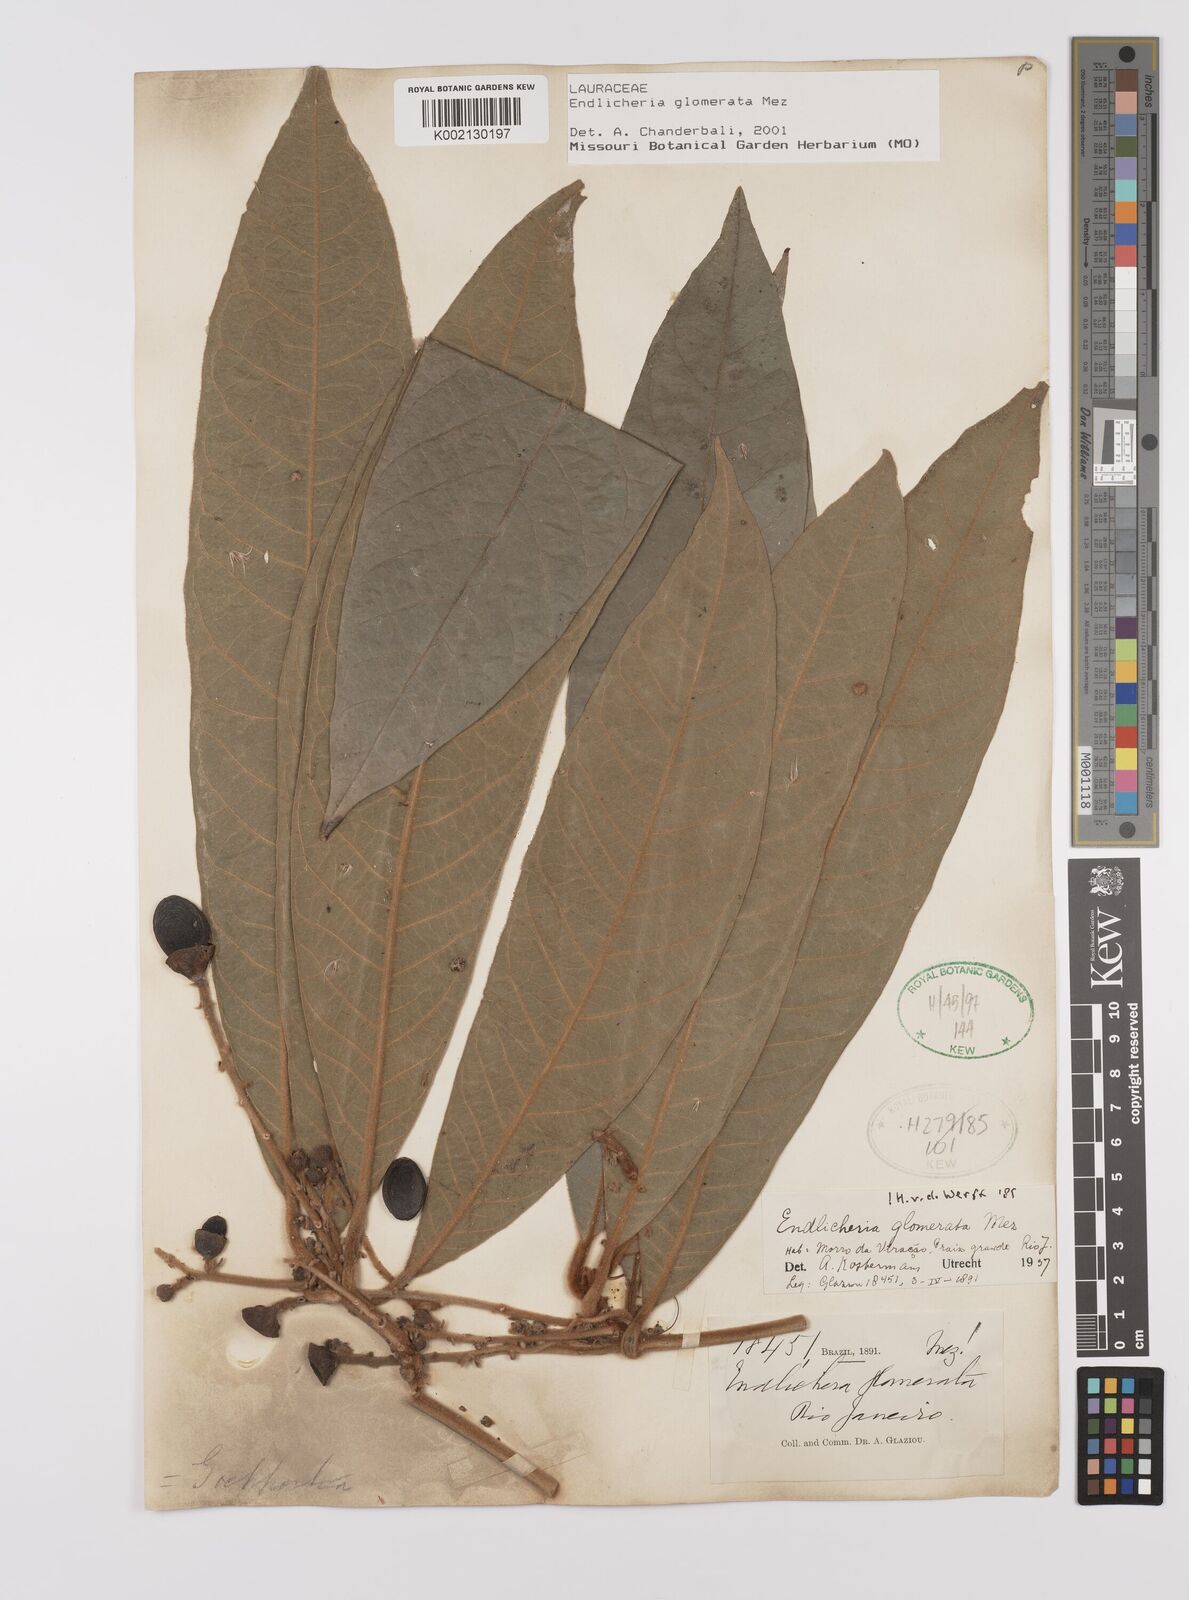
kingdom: Plantae
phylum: Tracheophyta
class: Magnoliopsida
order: Laurales
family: Lauraceae
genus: Endlicheria
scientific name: Endlicheria glomerata
